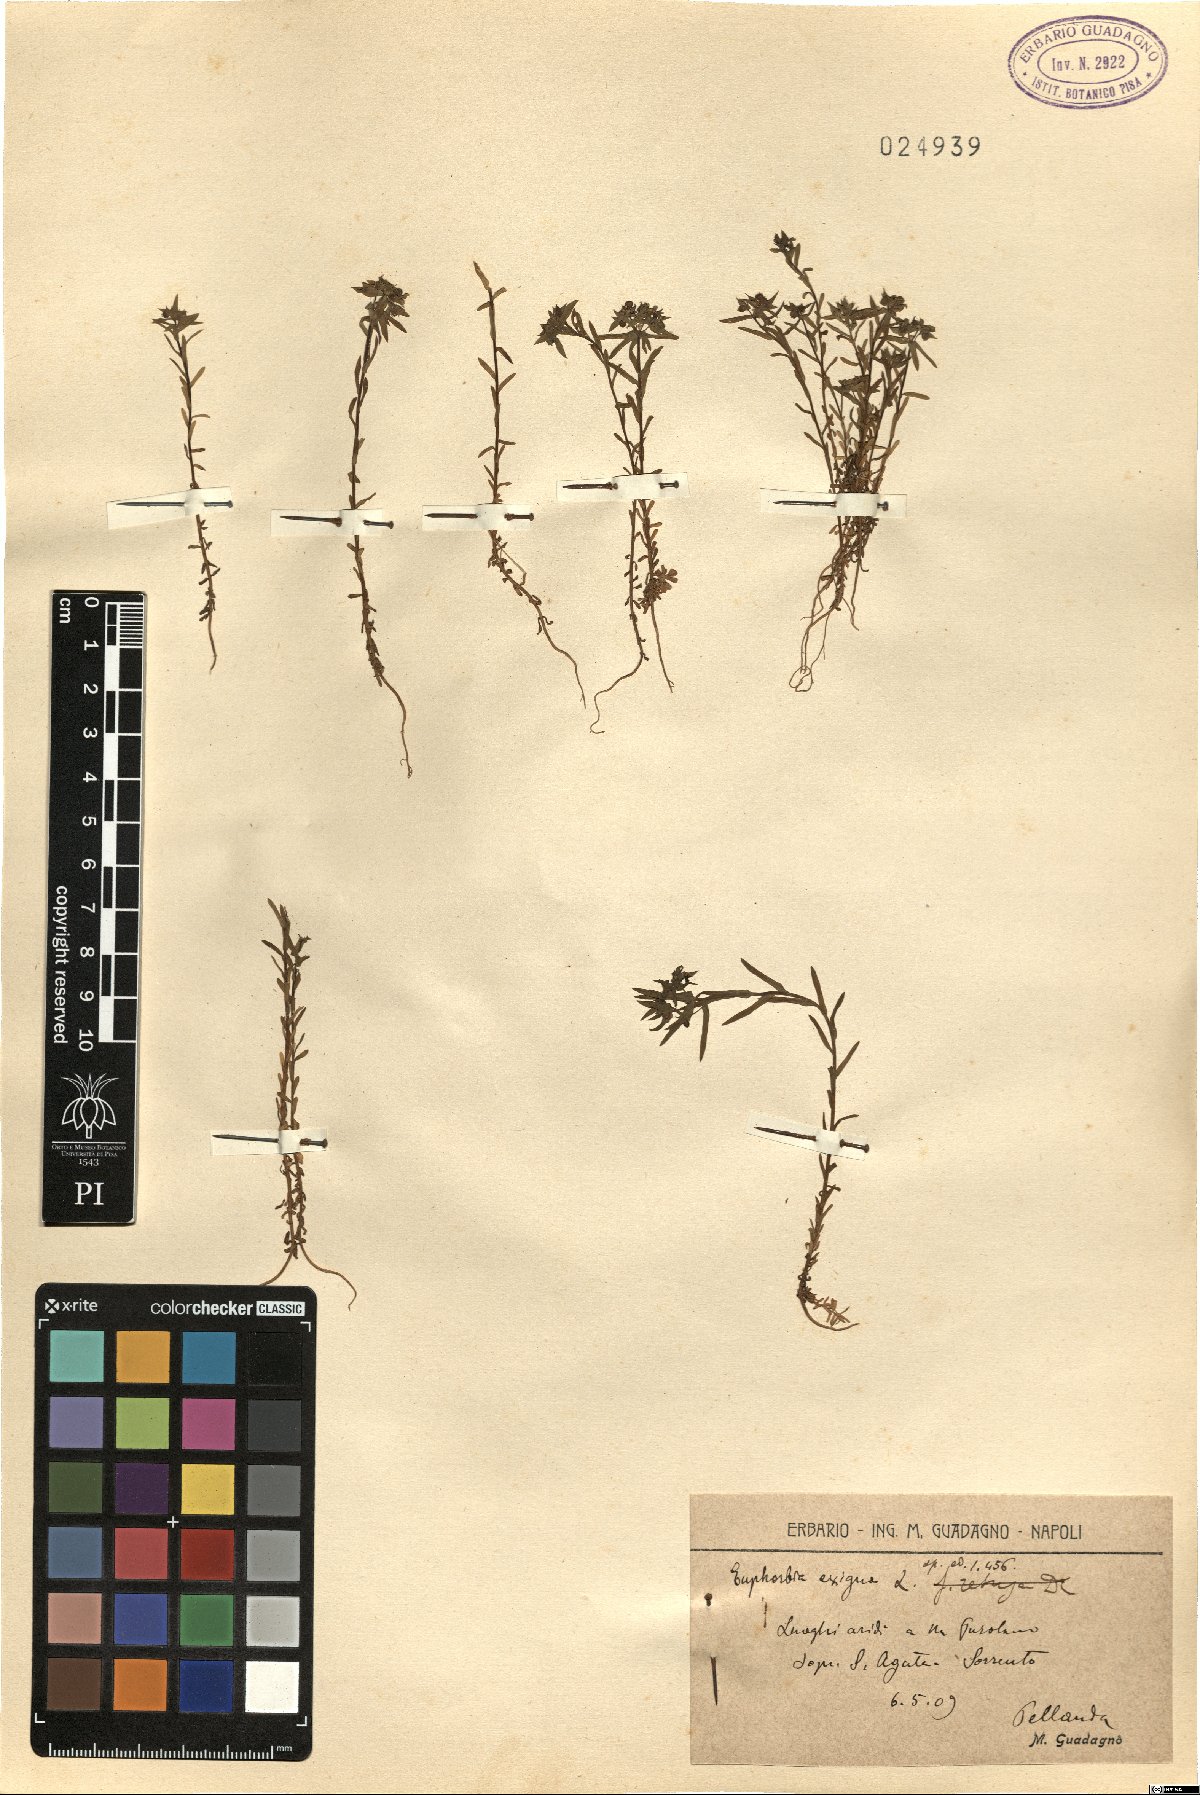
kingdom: Plantae
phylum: Tracheophyta
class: Magnoliopsida
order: Malpighiales
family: Euphorbiaceae
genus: Euphorbia
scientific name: Euphorbia exigua
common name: Dwarf spurge
